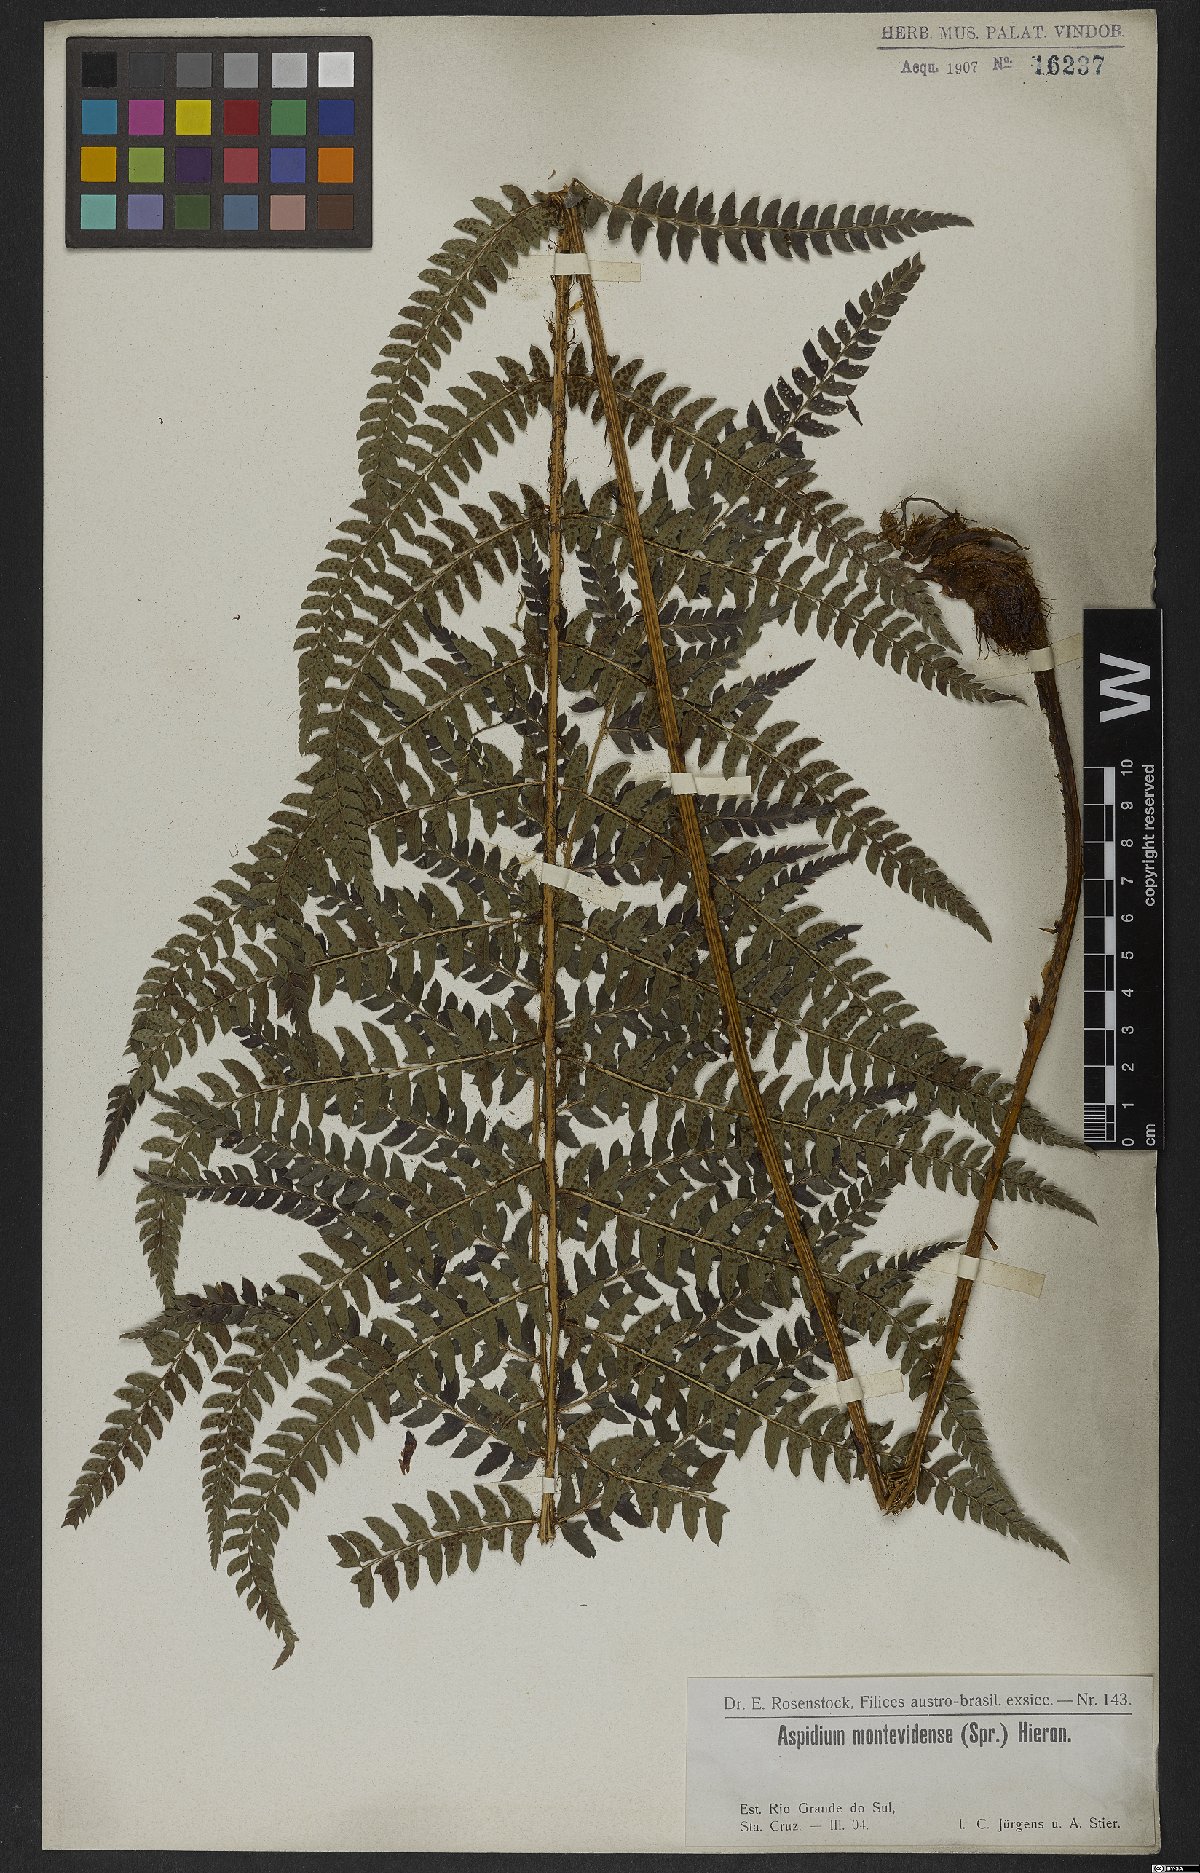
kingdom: Plantae
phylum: Tracheophyta
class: Polypodiopsida
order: Polypodiales
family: Dryopteridaceae
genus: Polystichum
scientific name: Polystichum aculeatum
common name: Hard shield-fern
